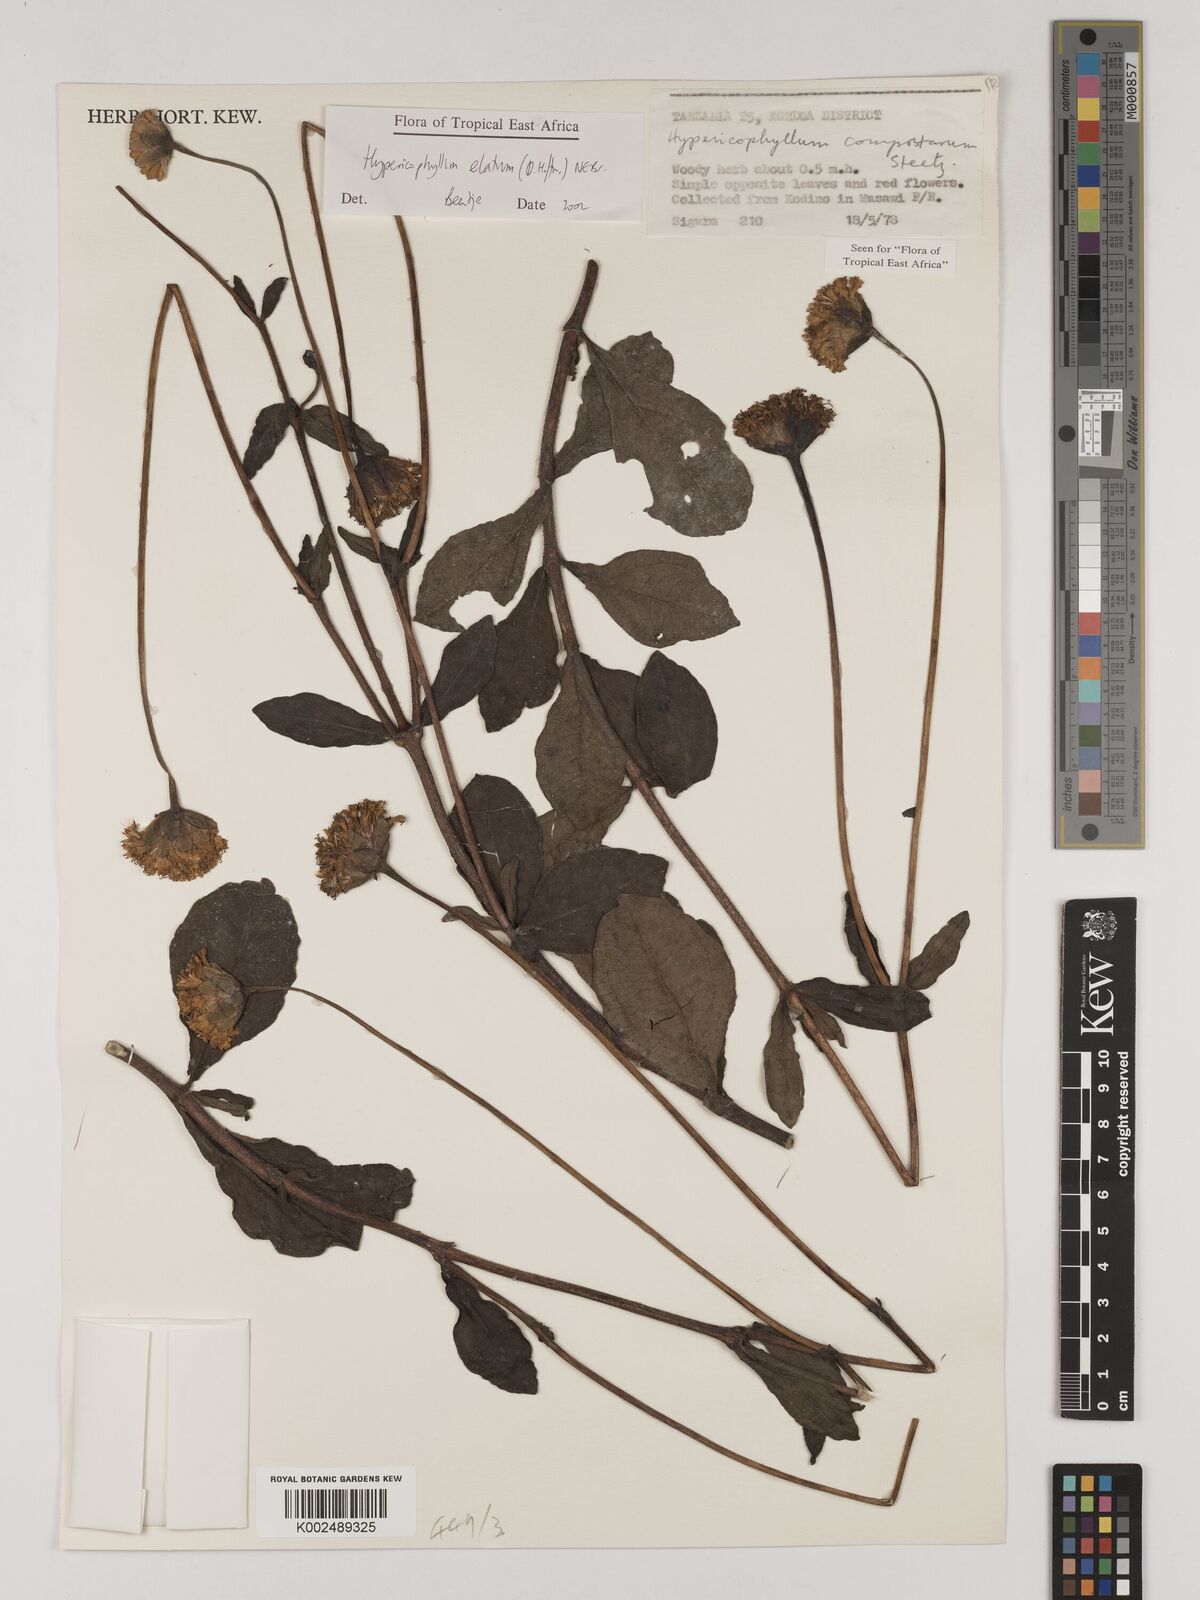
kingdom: Plantae
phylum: Tracheophyta
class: Magnoliopsida
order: Asterales
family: Asteraceae
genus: Hypericophyllum
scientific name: Hypericophyllum elatum
